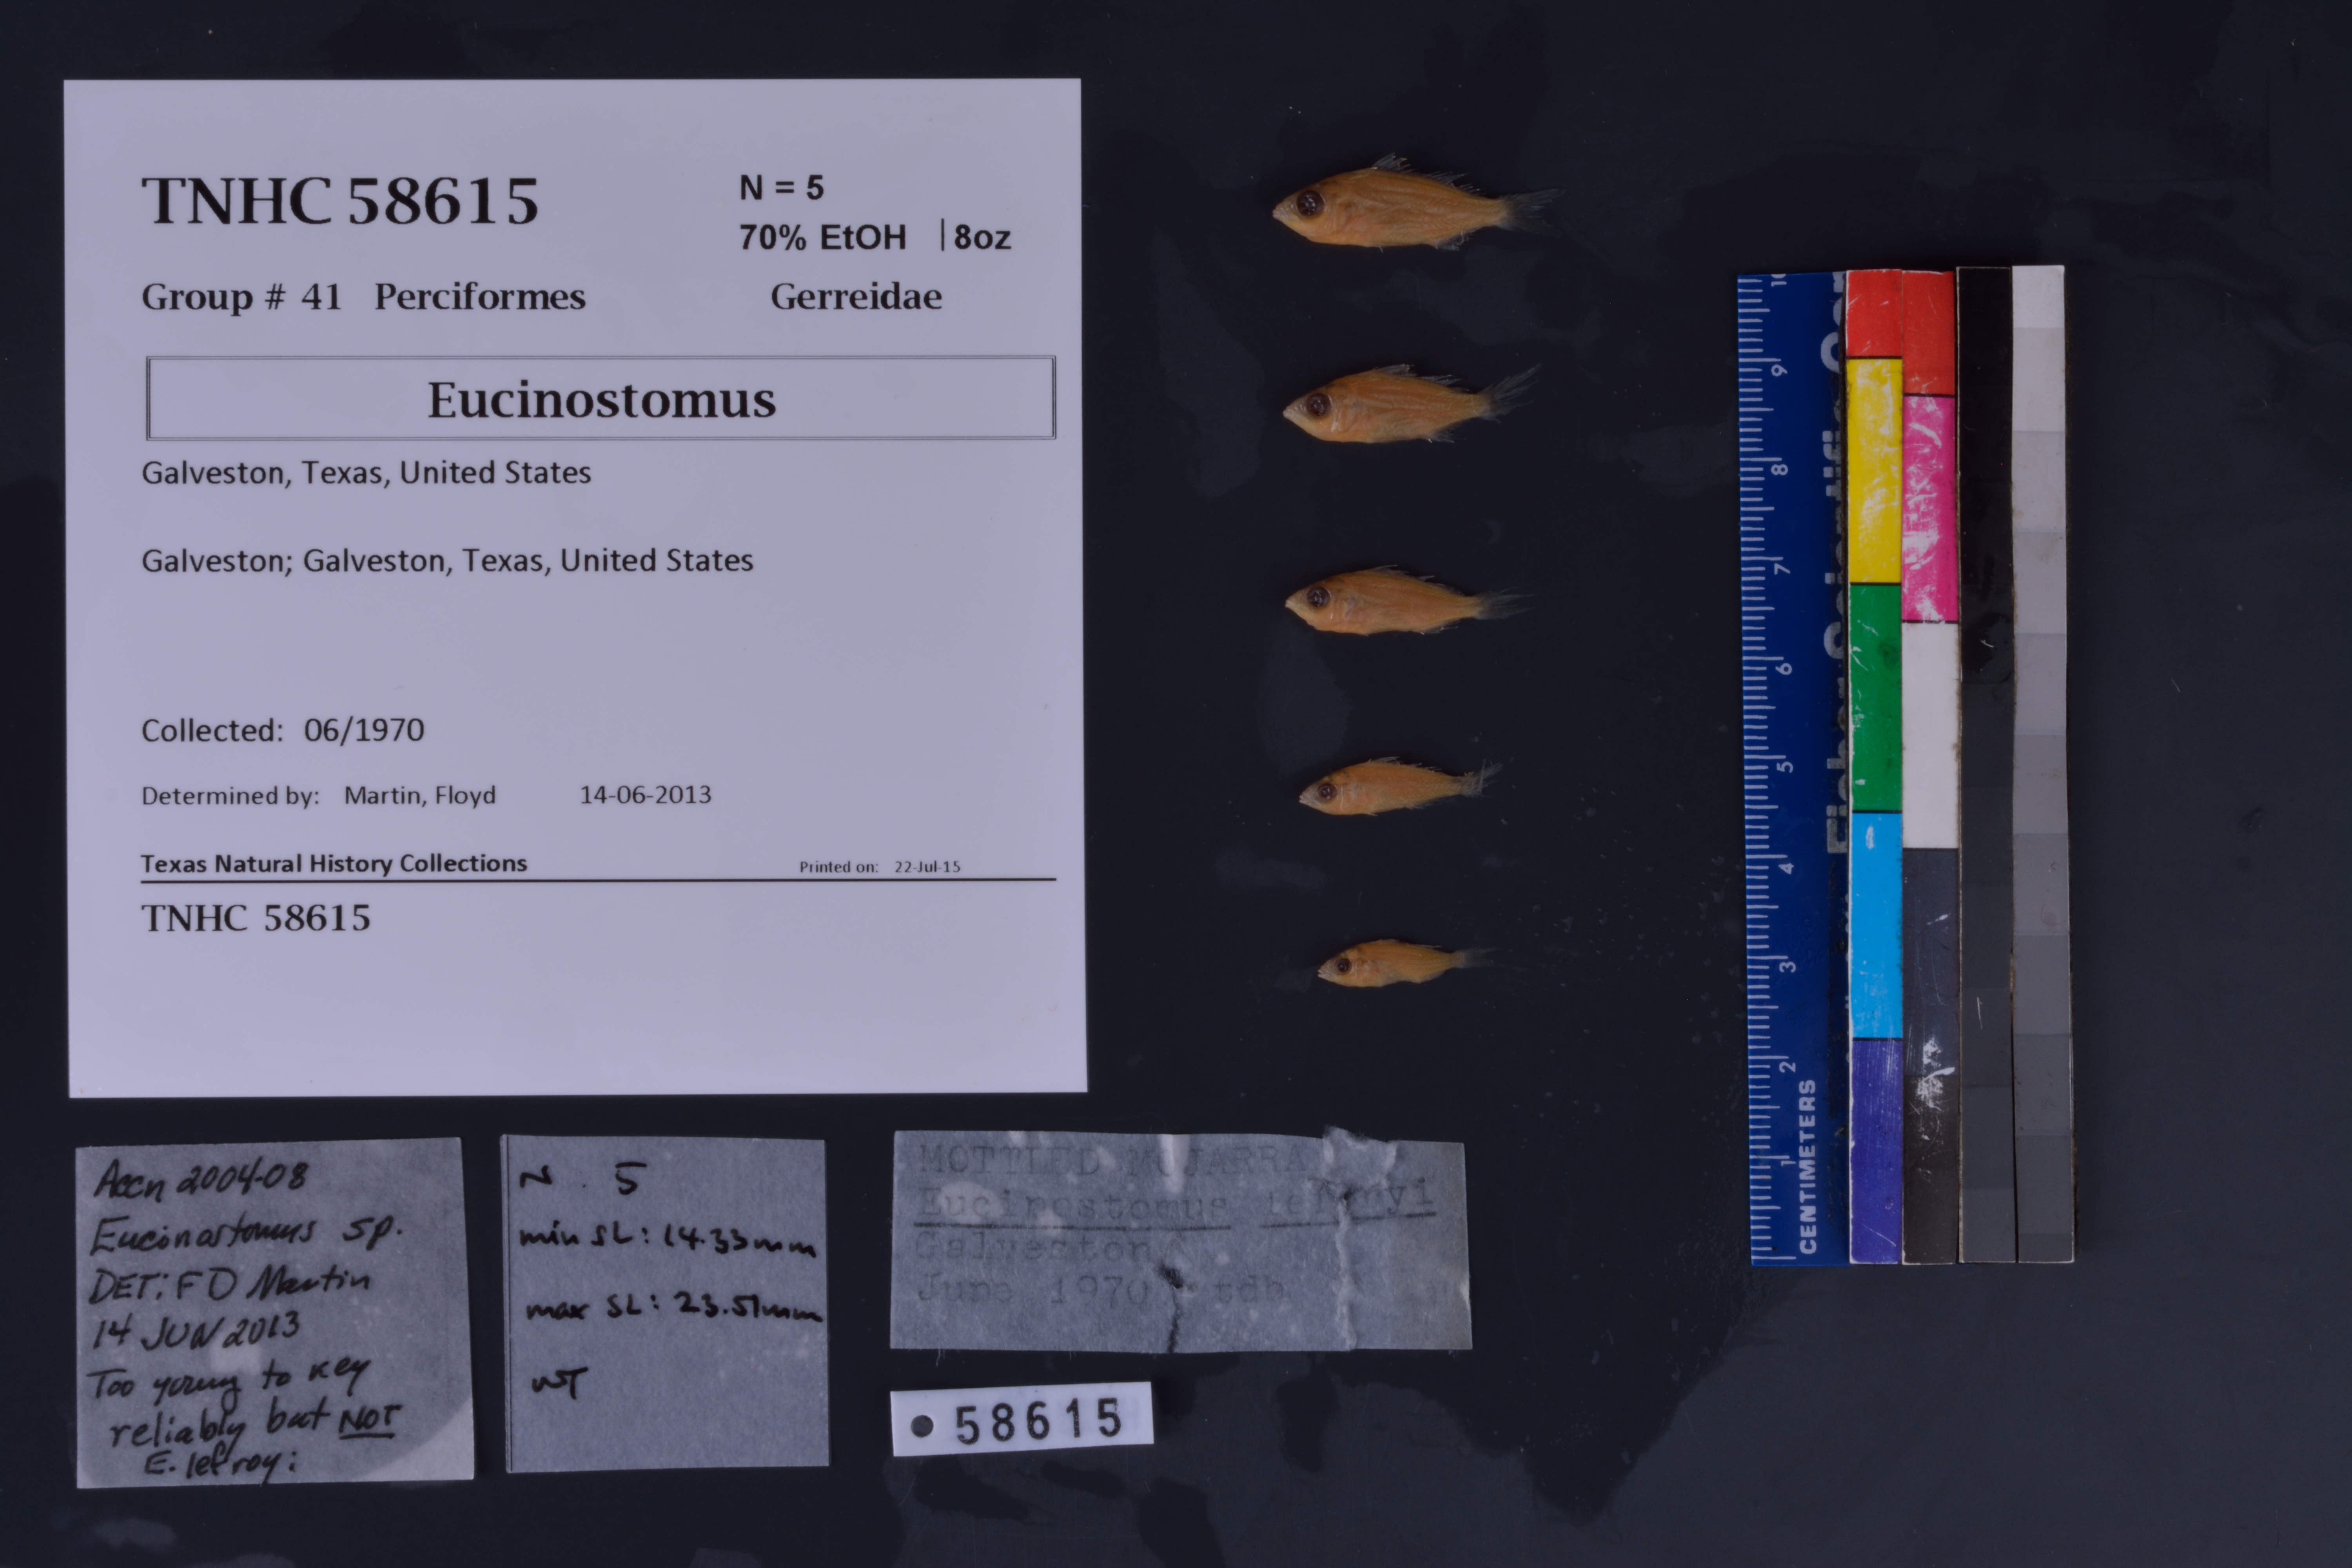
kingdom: Animalia
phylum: Chordata
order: Perciformes
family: Gerreidae
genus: Eucinostomus
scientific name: Eucinostomus
